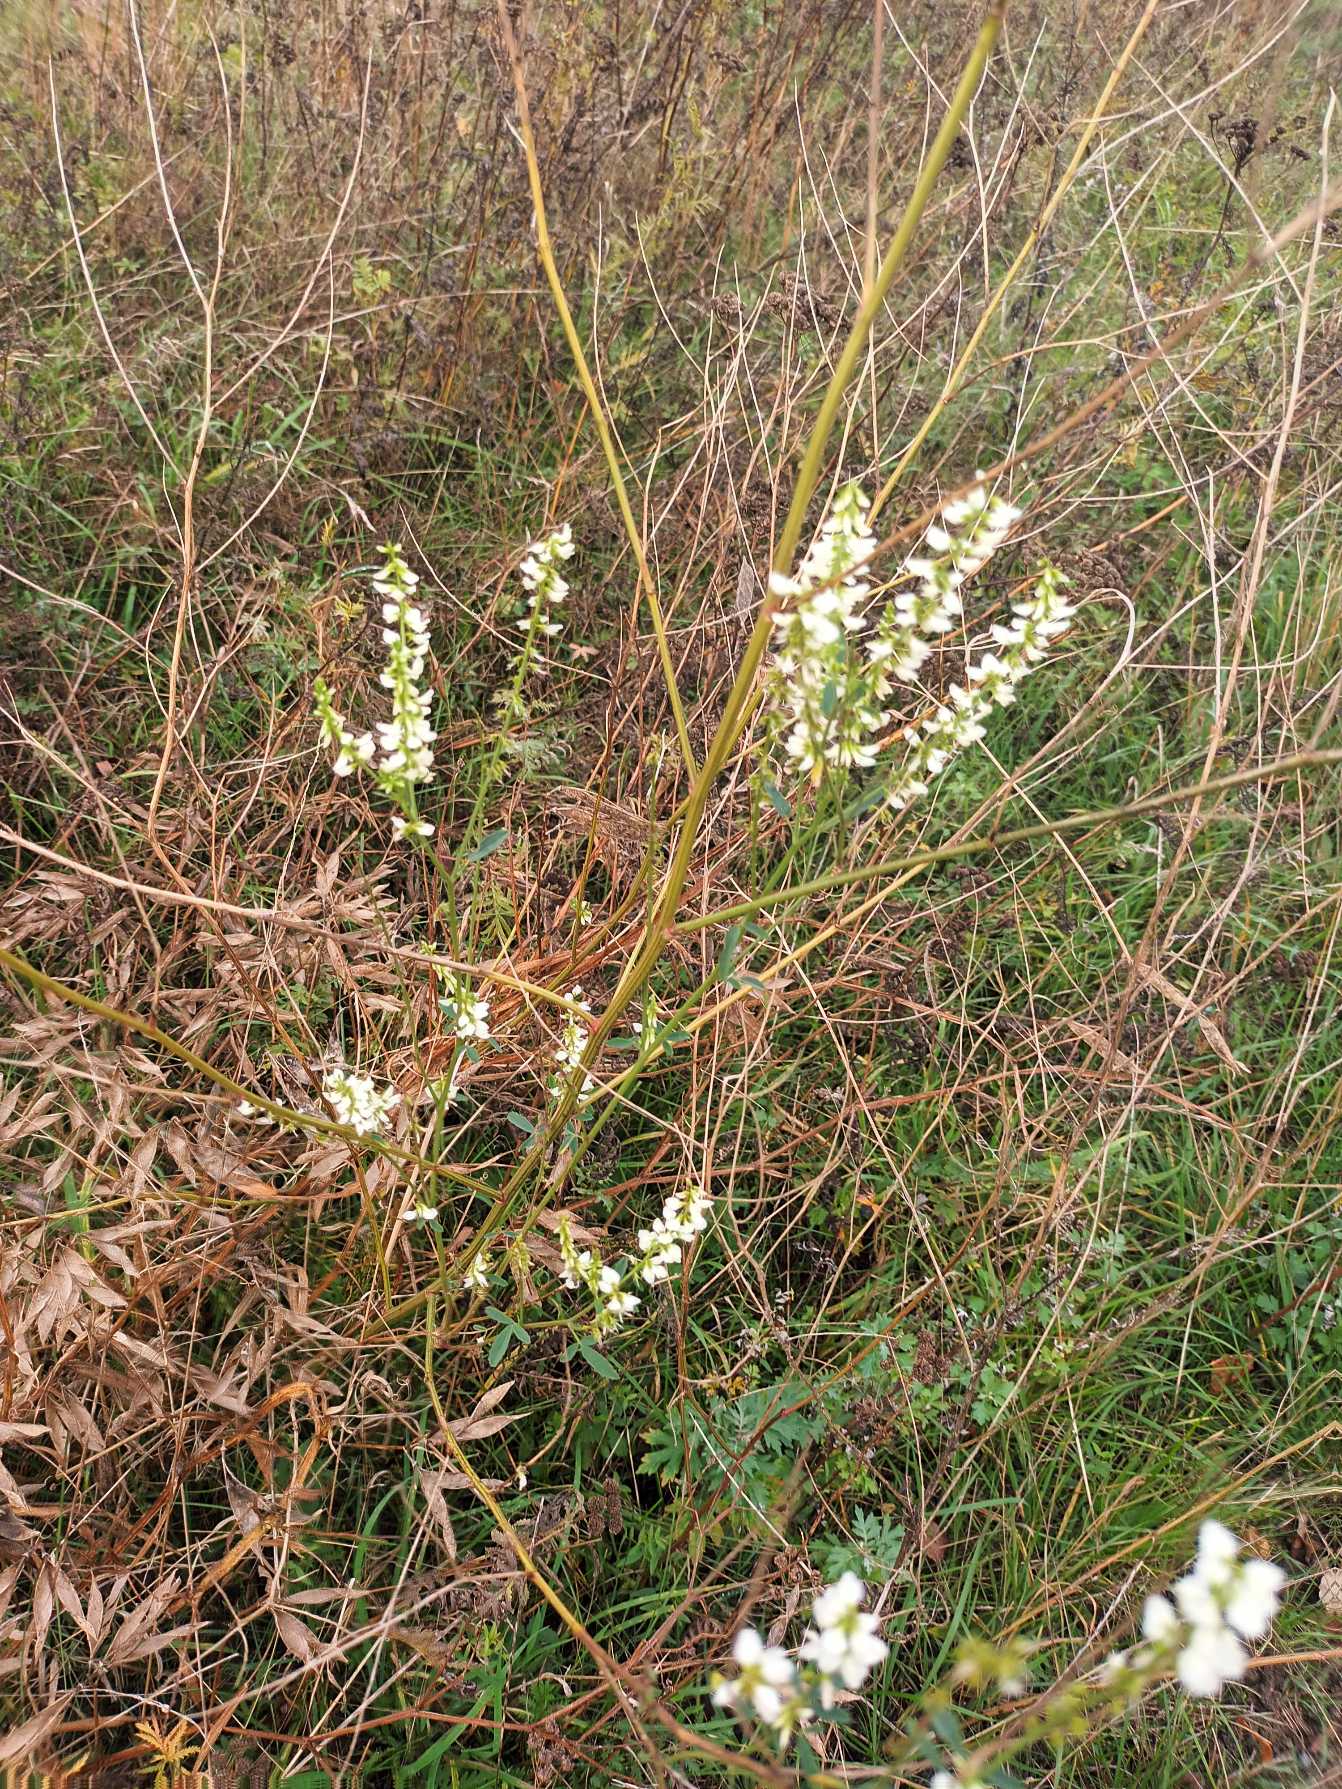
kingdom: Plantae
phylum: Tracheophyta
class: Magnoliopsida
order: Fabales
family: Fabaceae
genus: Melilotus
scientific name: Melilotus albus
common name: Hvid stenkløver
